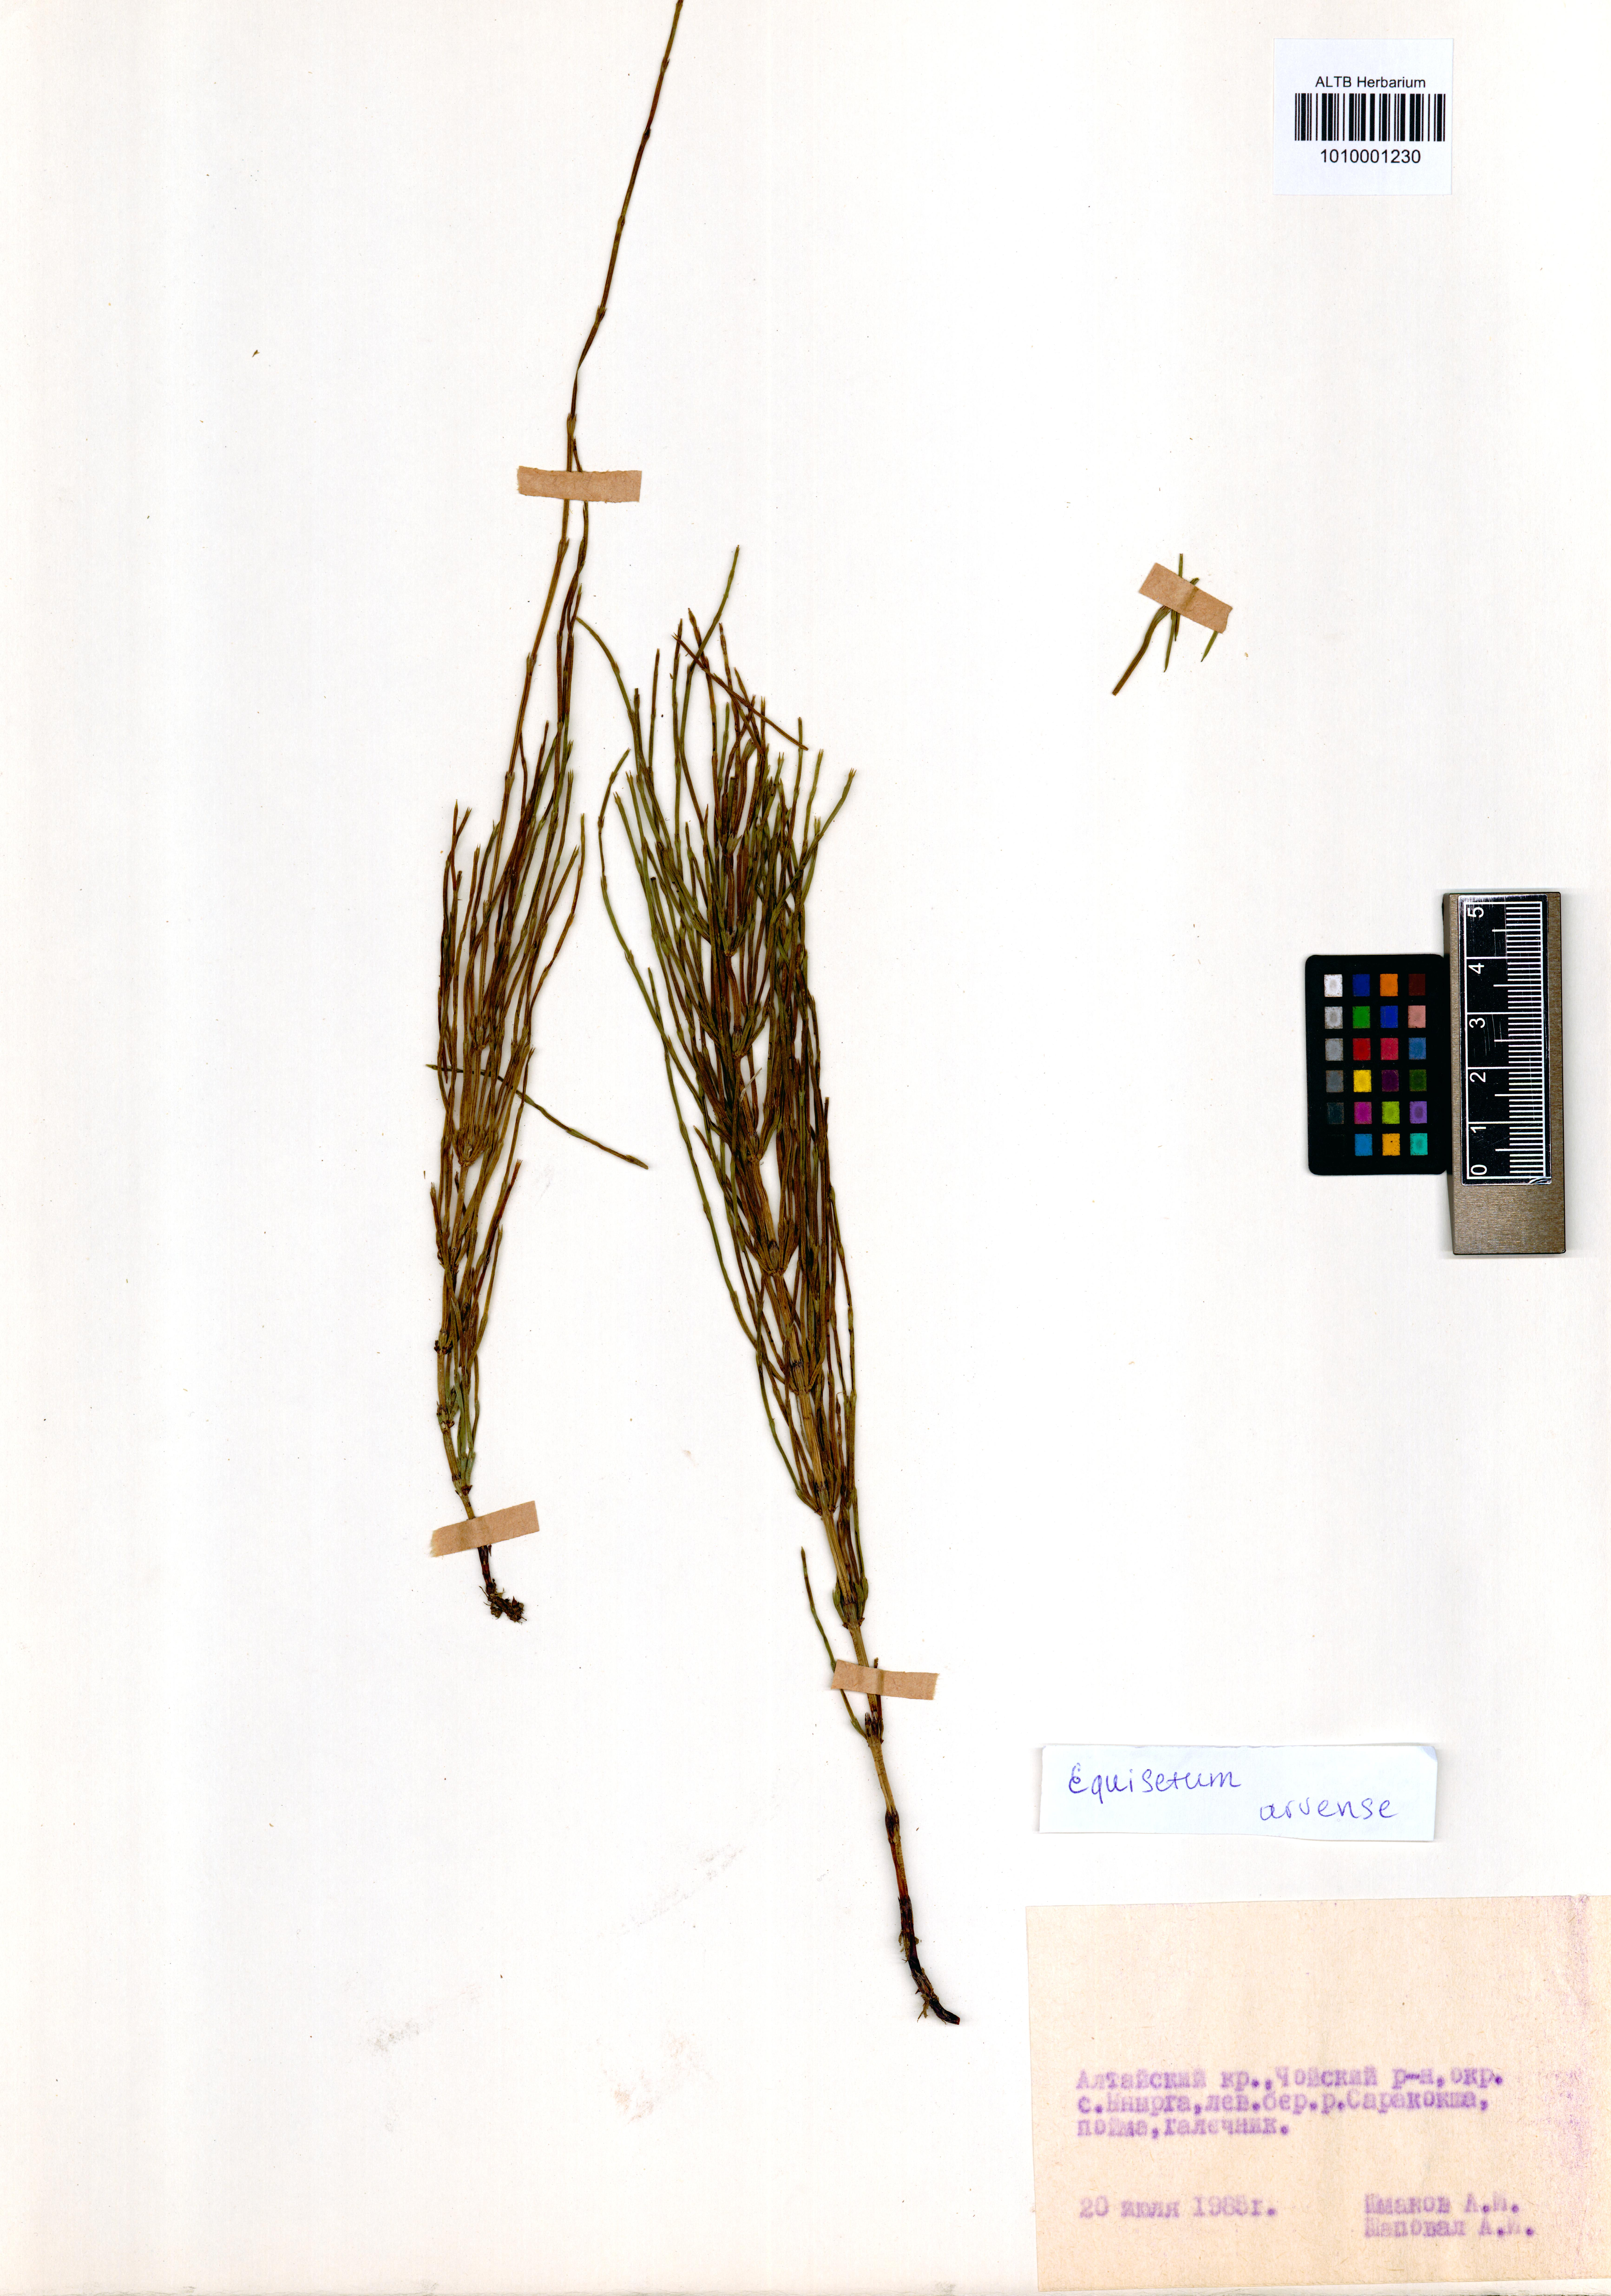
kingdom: Plantae
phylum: Tracheophyta
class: Polypodiopsida
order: Equisetales
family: Equisetaceae
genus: Equisetum
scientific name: Equisetum arvense
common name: Field horsetail
